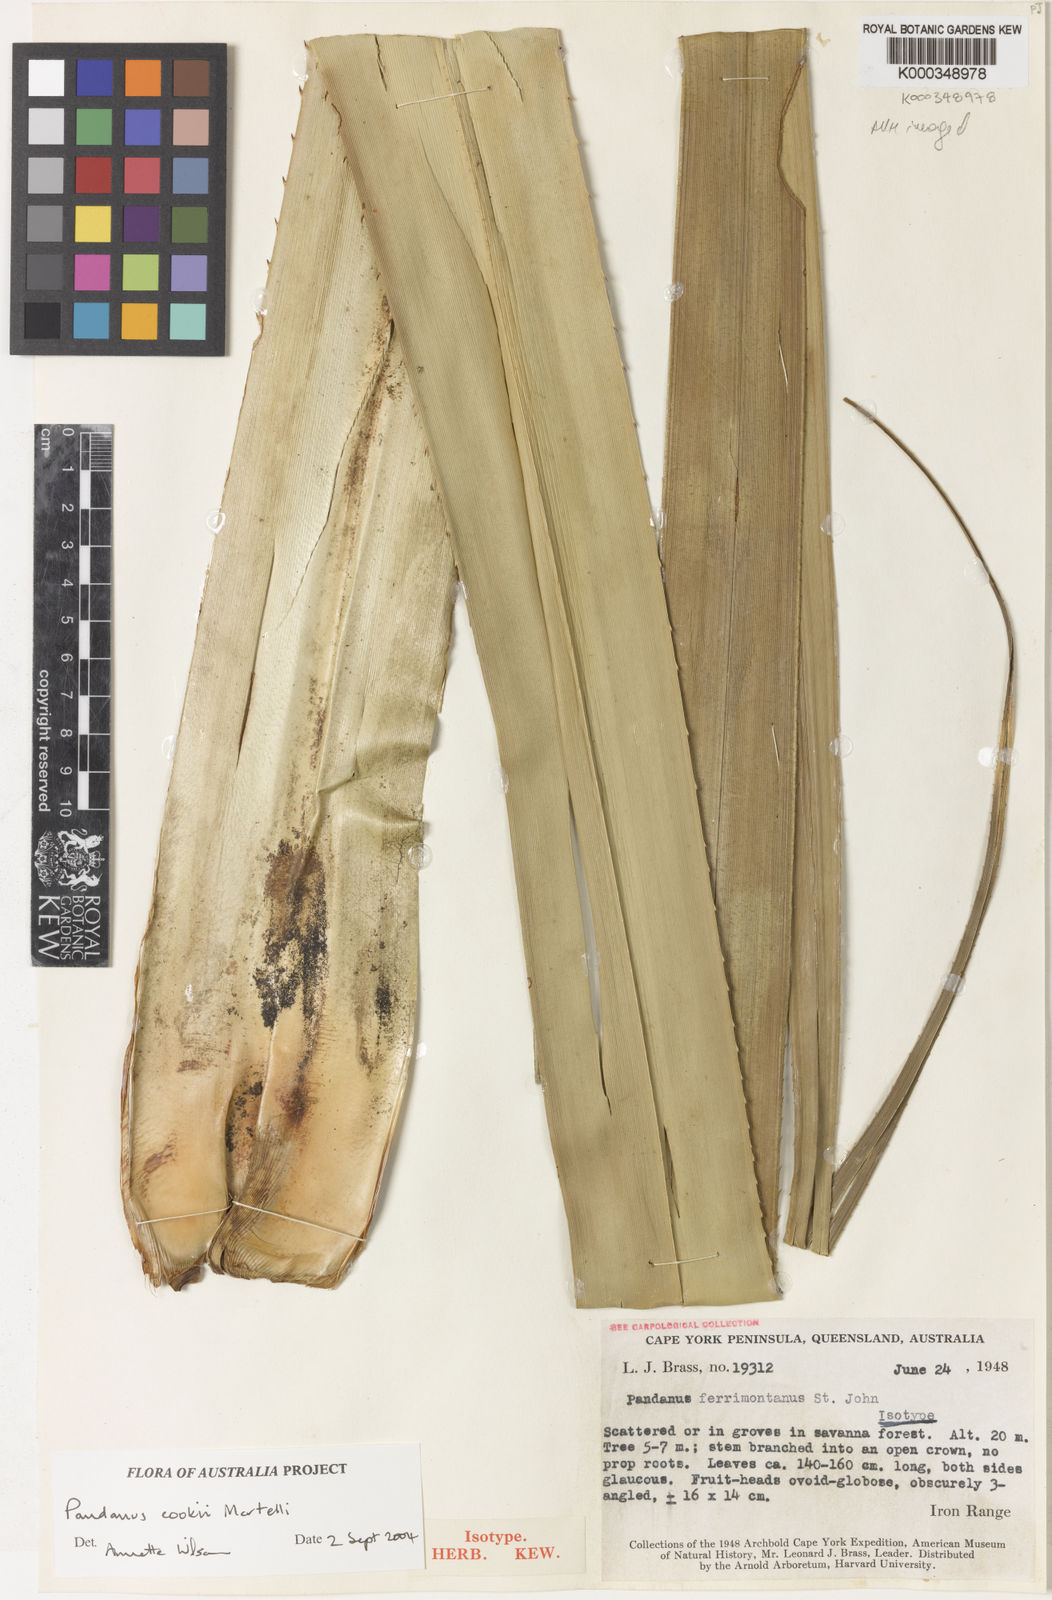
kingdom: Plantae
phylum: Tracheophyta
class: Liliopsida
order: Pandanales
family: Pandanaceae
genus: Pandanus
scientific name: Pandanus cookii
